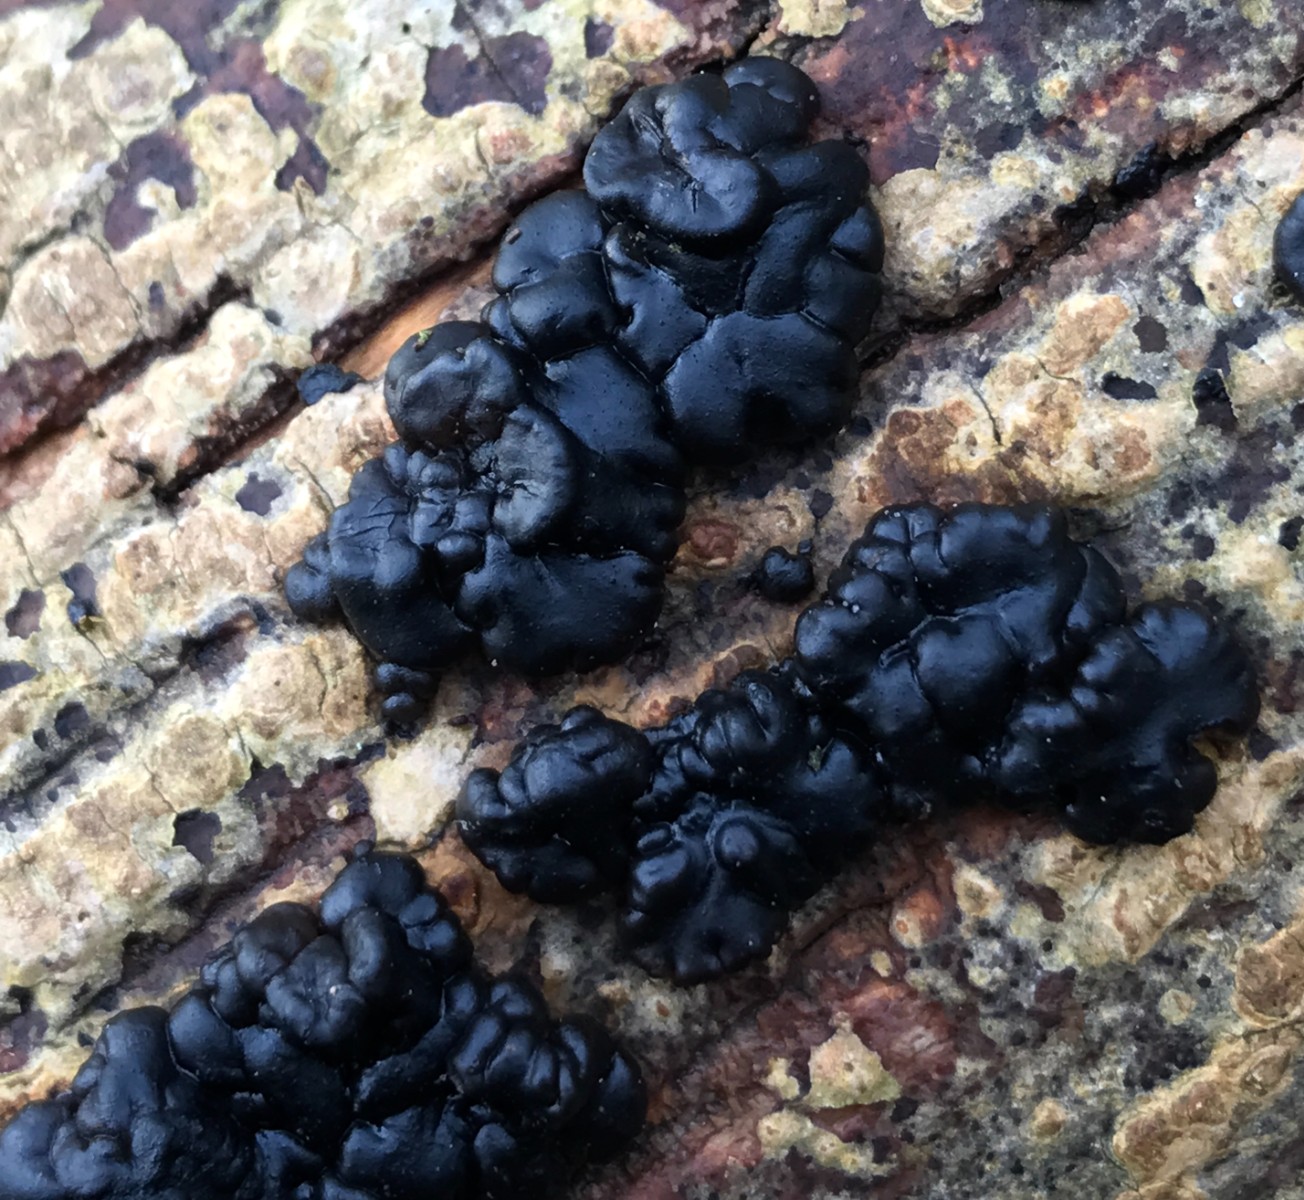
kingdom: Fungi
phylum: Basidiomycota
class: Agaricomycetes
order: Auriculariales
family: Auriculariaceae
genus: Exidia
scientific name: Exidia nigricans
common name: almindelig bævretop
